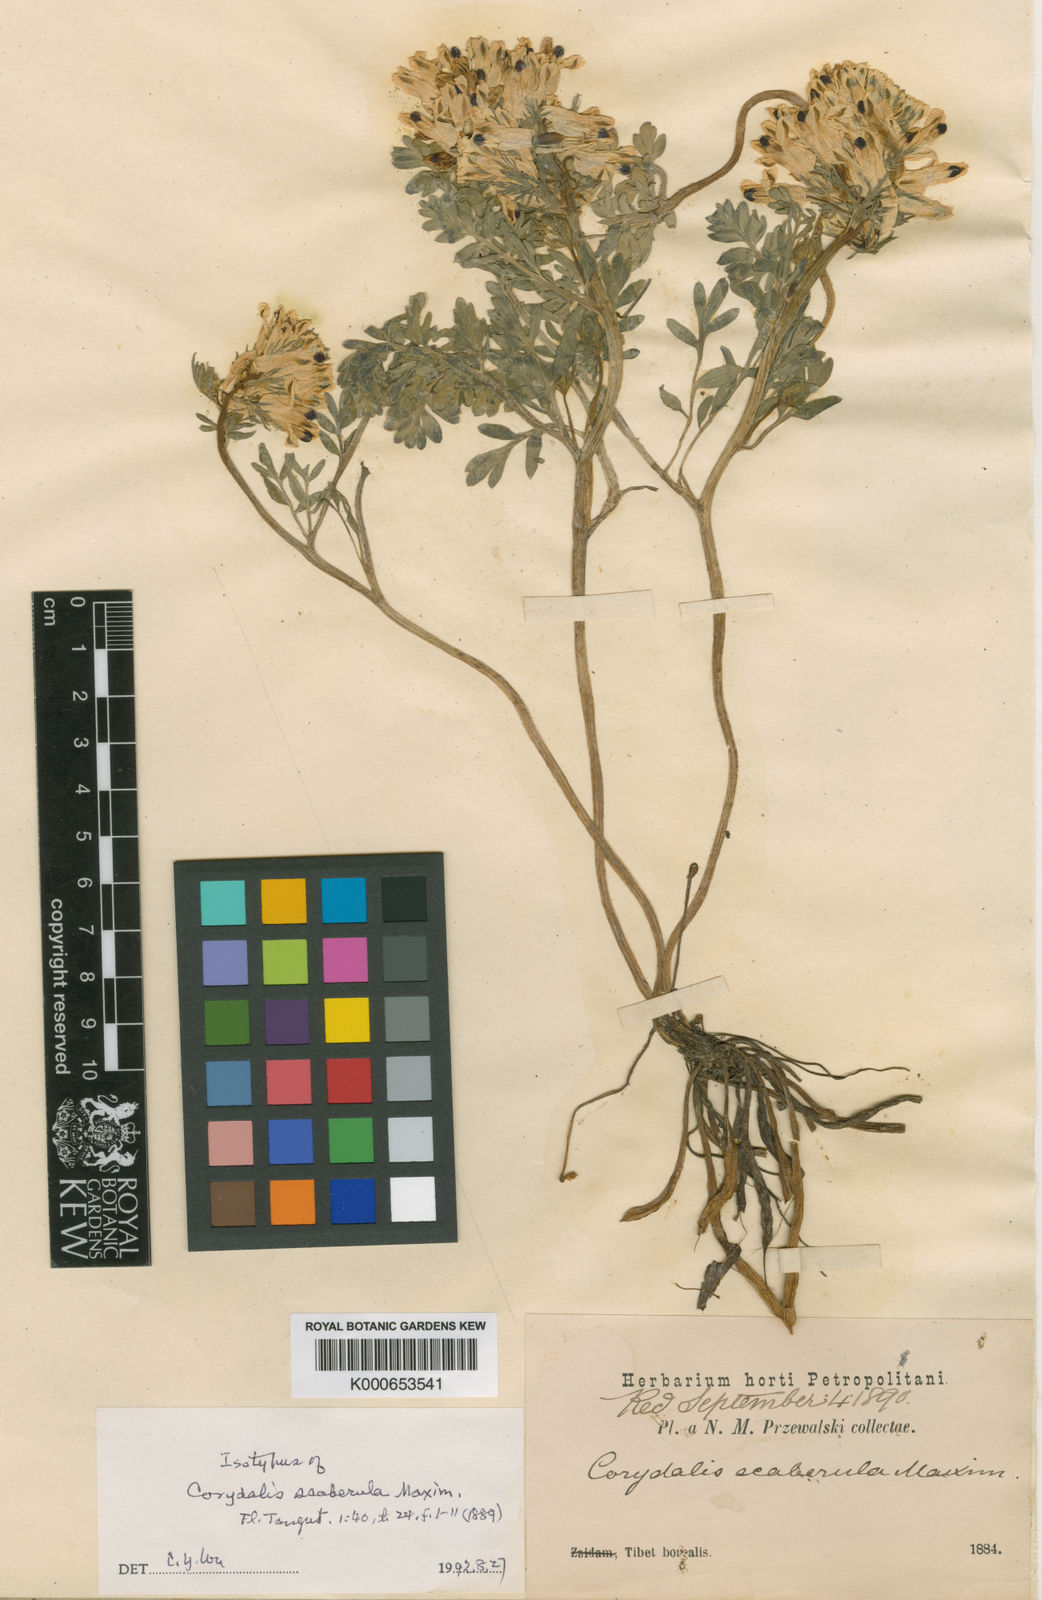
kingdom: Plantae
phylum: Tracheophyta
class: Magnoliopsida
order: Ranunculales
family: Papaveraceae
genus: Corydalis
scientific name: Corydalis scaberula
